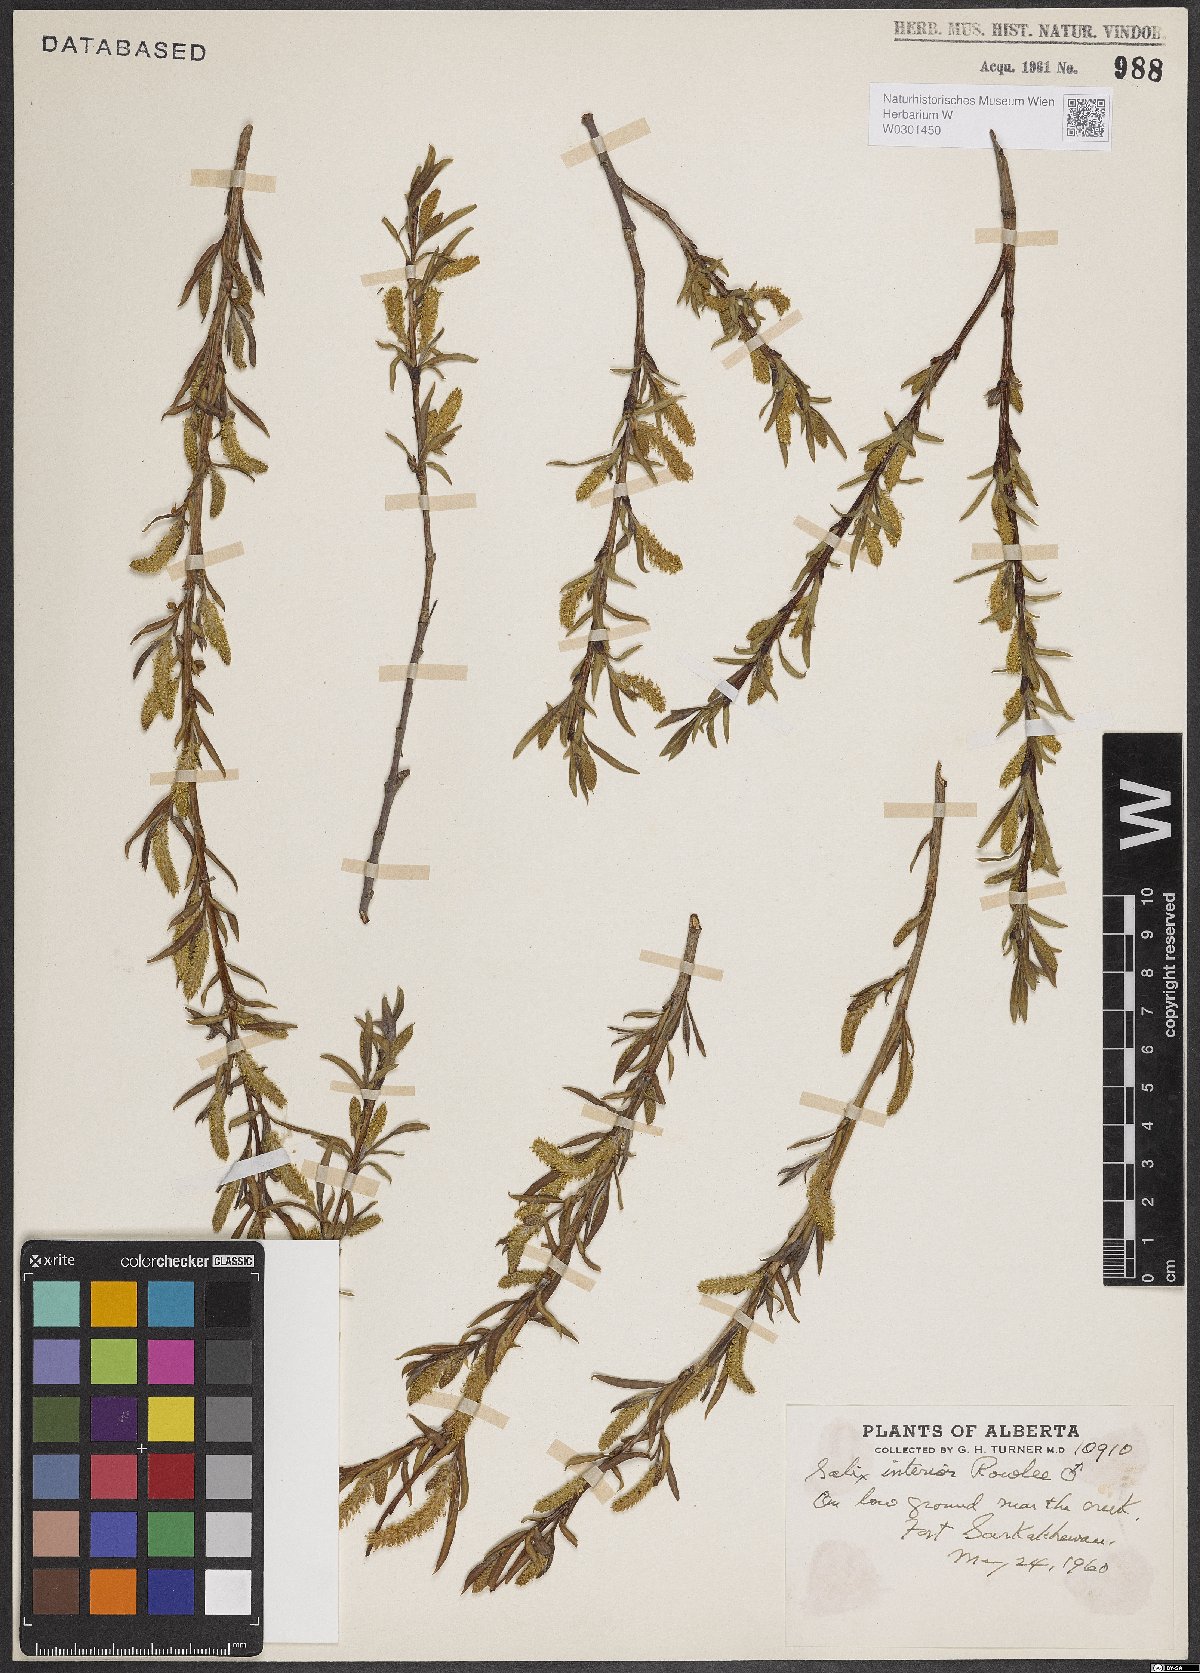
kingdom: Plantae
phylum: Tracheophyta
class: Magnoliopsida
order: Malpighiales
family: Salicaceae
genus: Salix
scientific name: Salix interior
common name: Sandbar willow
